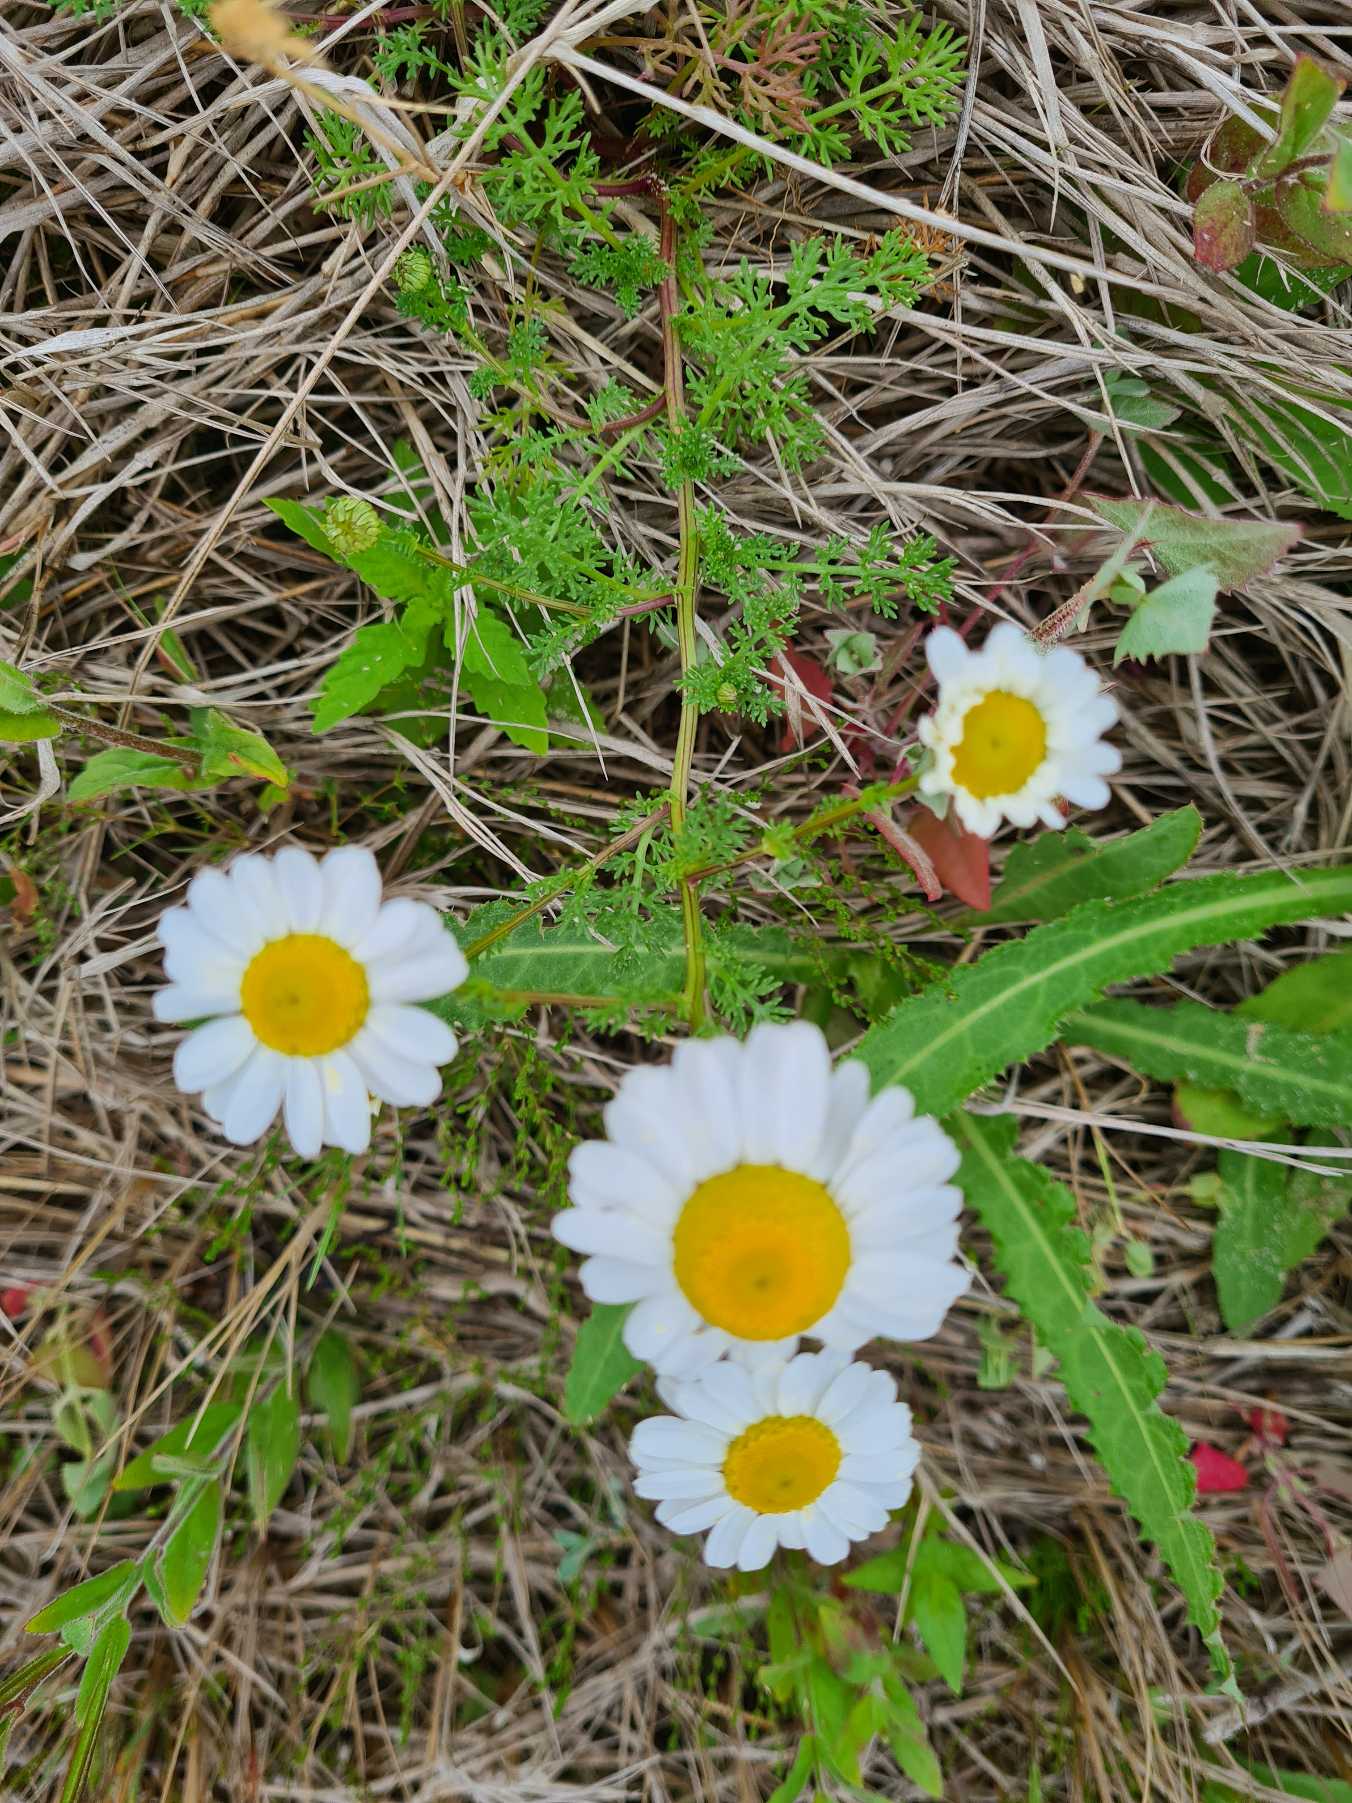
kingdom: Plantae
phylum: Tracheophyta
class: Magnoliopsida
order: Asterales
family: Asteraceae
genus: Tripleurospermum
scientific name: Tripleurospermum maritimum
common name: Strand-kamille
